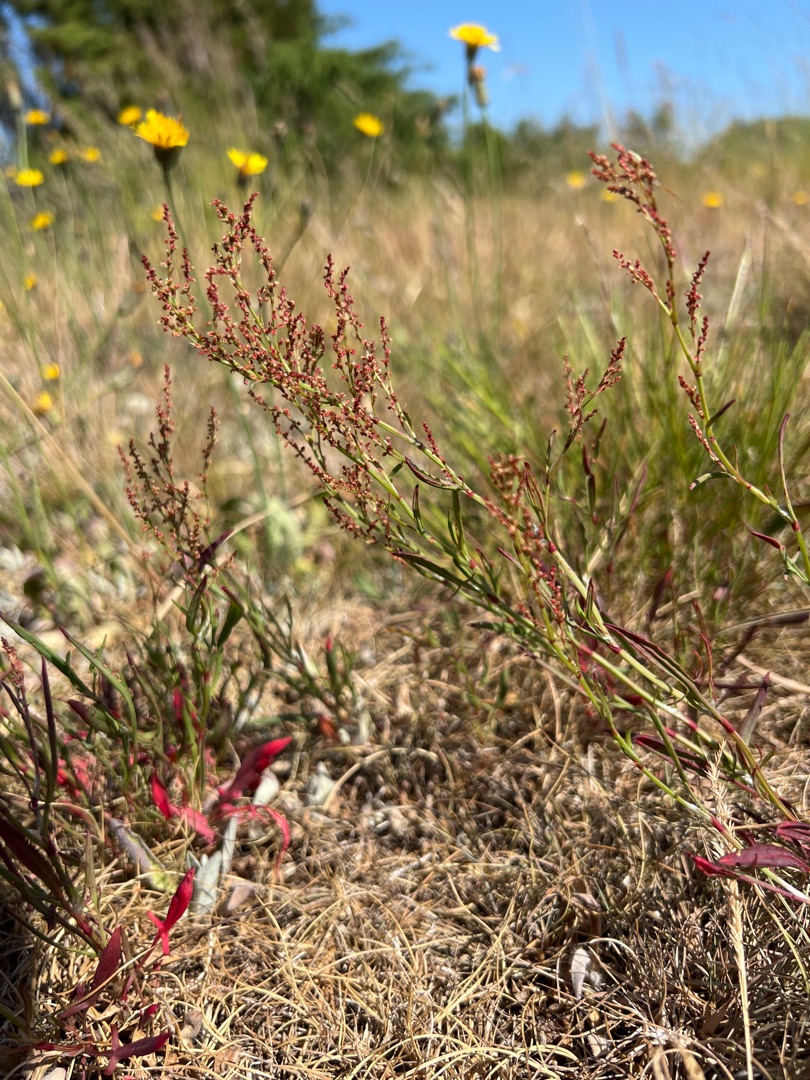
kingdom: Plantae
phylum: Tracheophyta
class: Magnoliopsida
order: Caryophyllales
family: Polygonaceae
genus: Rumex
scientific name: Rumex acetosella
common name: Rødknæ
